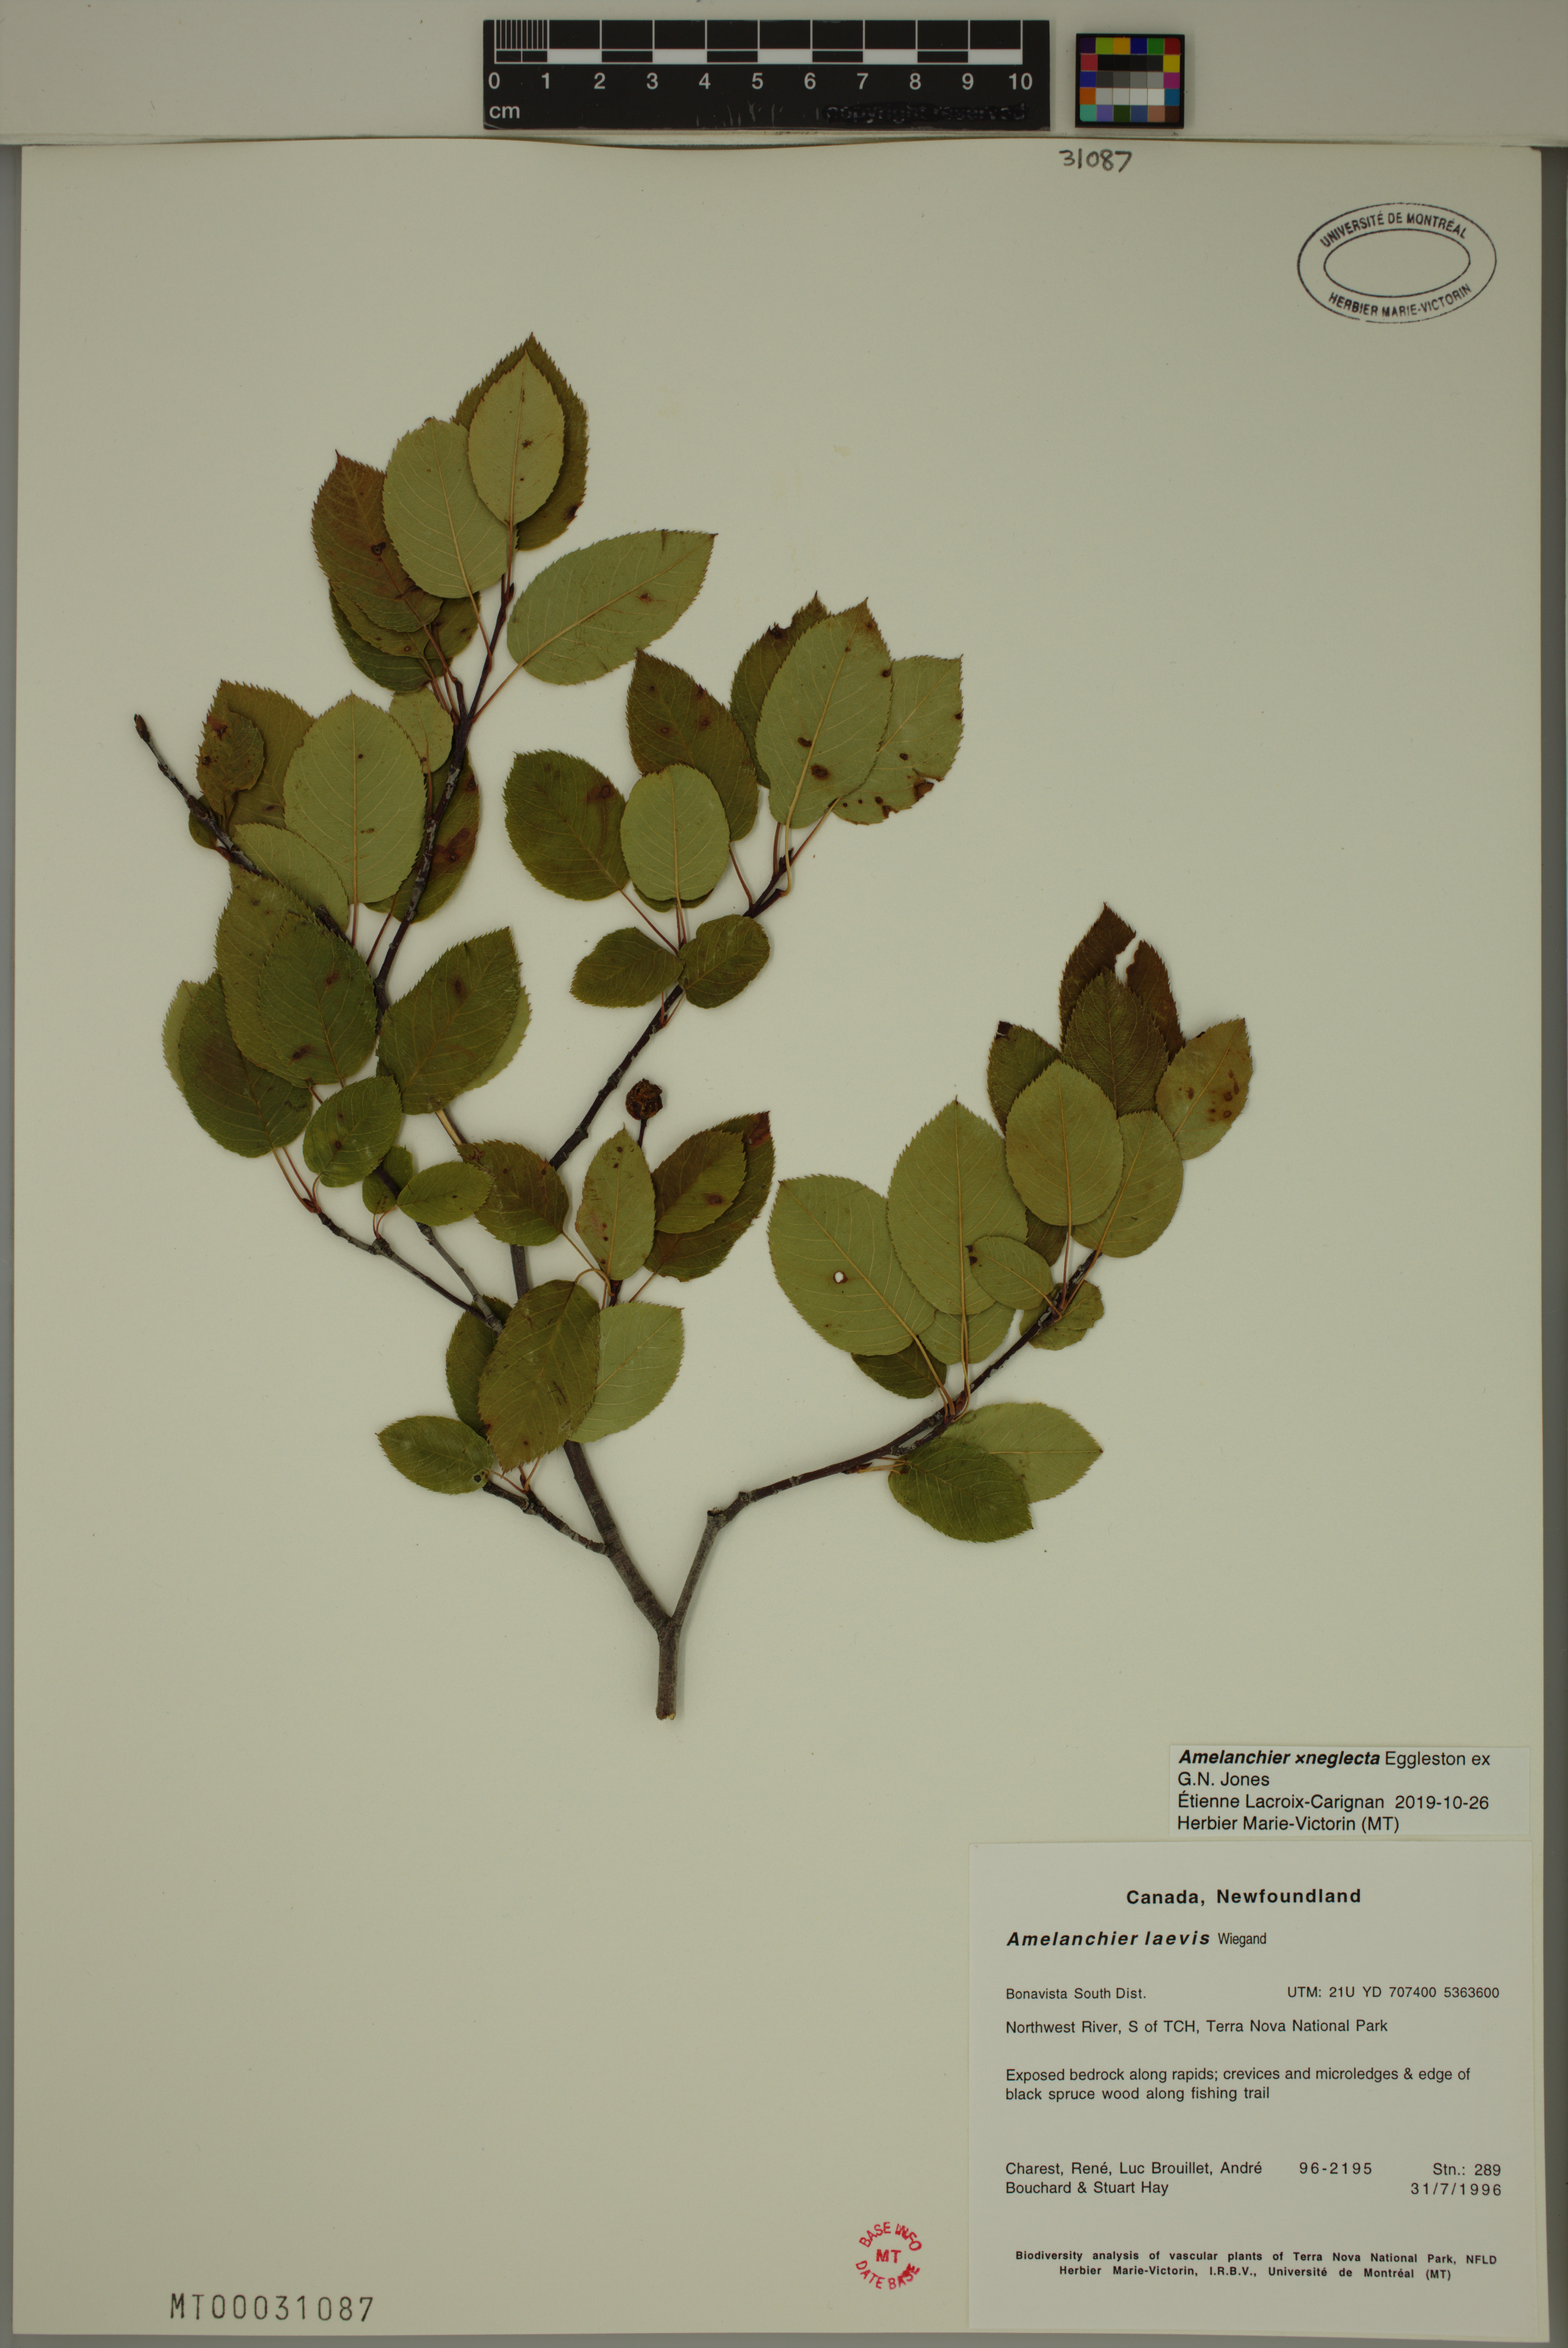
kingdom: Plantae
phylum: Tracheophyta
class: Magnoliopsida
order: Rosales
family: Rosaceae
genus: Amelanchier
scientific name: Amelanchier neglecta
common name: Overlooked serviceberry
